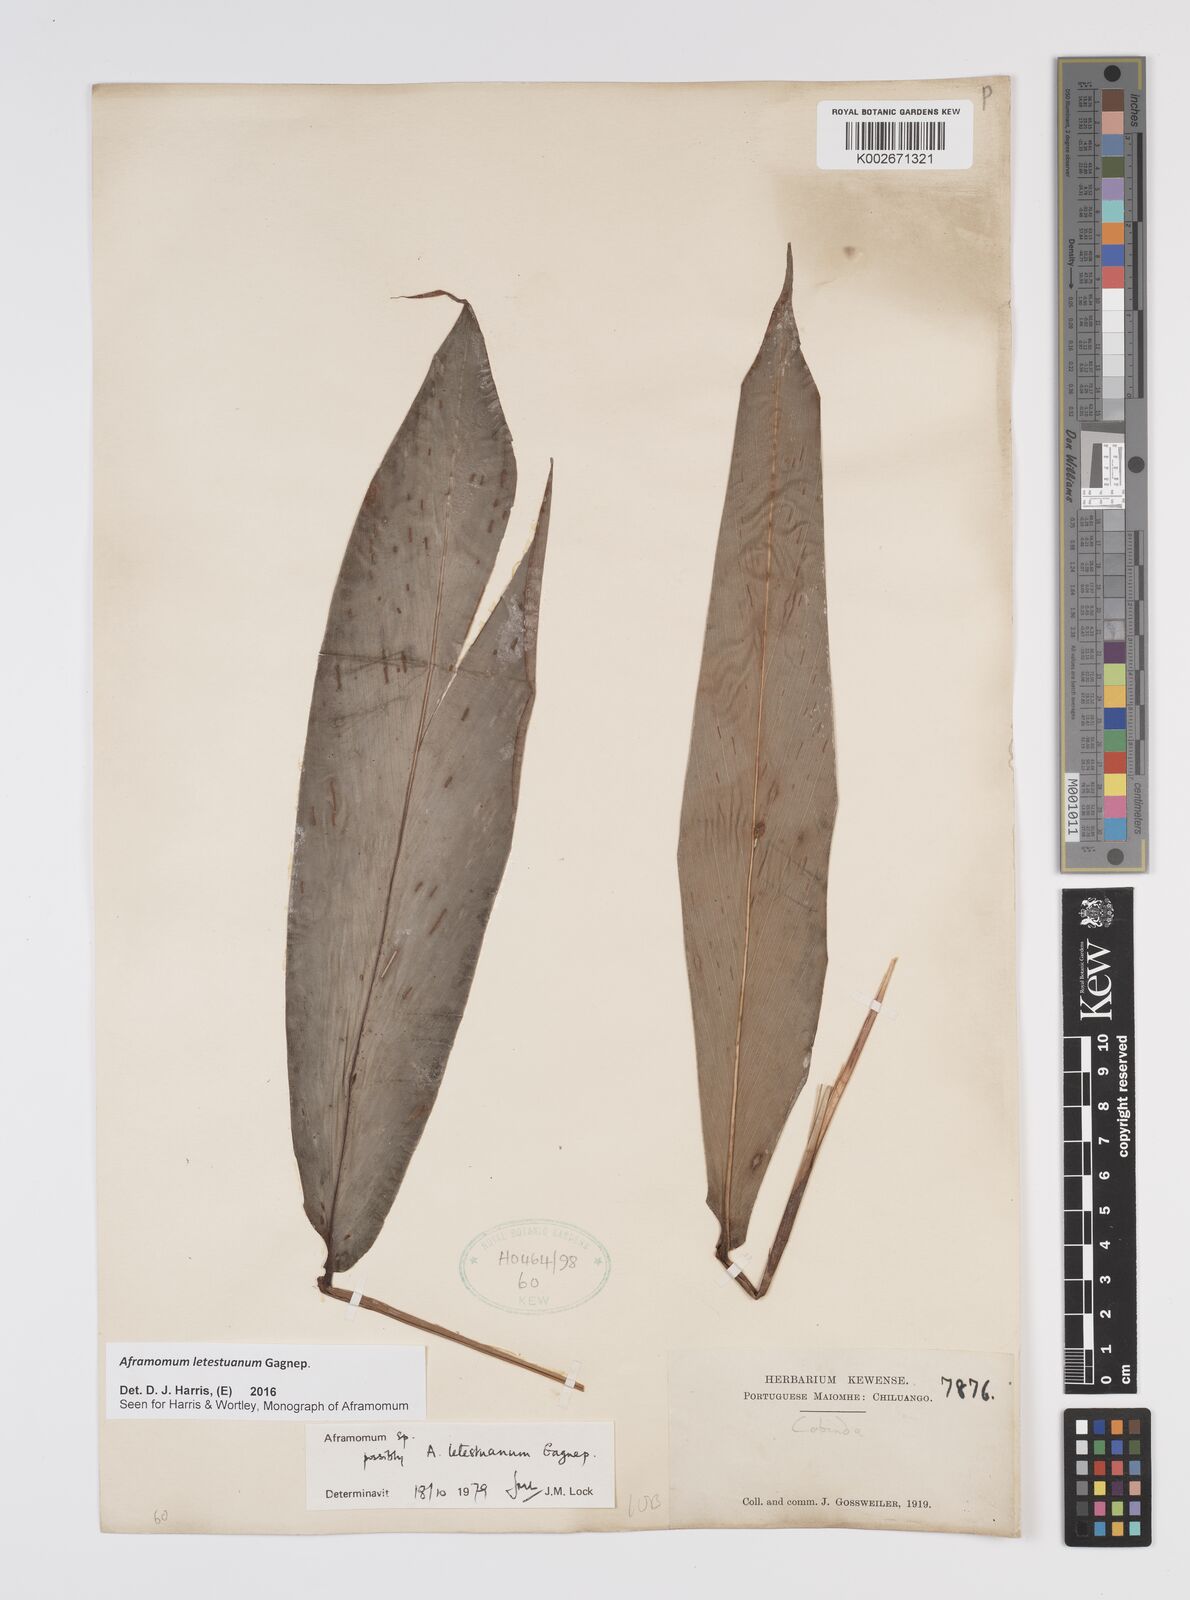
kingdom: Plantae
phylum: Tracheophyta
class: Liliopsida
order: Zingiberales
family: Zingiberaceae
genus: Aframomum
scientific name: Aframomum letestuanum
